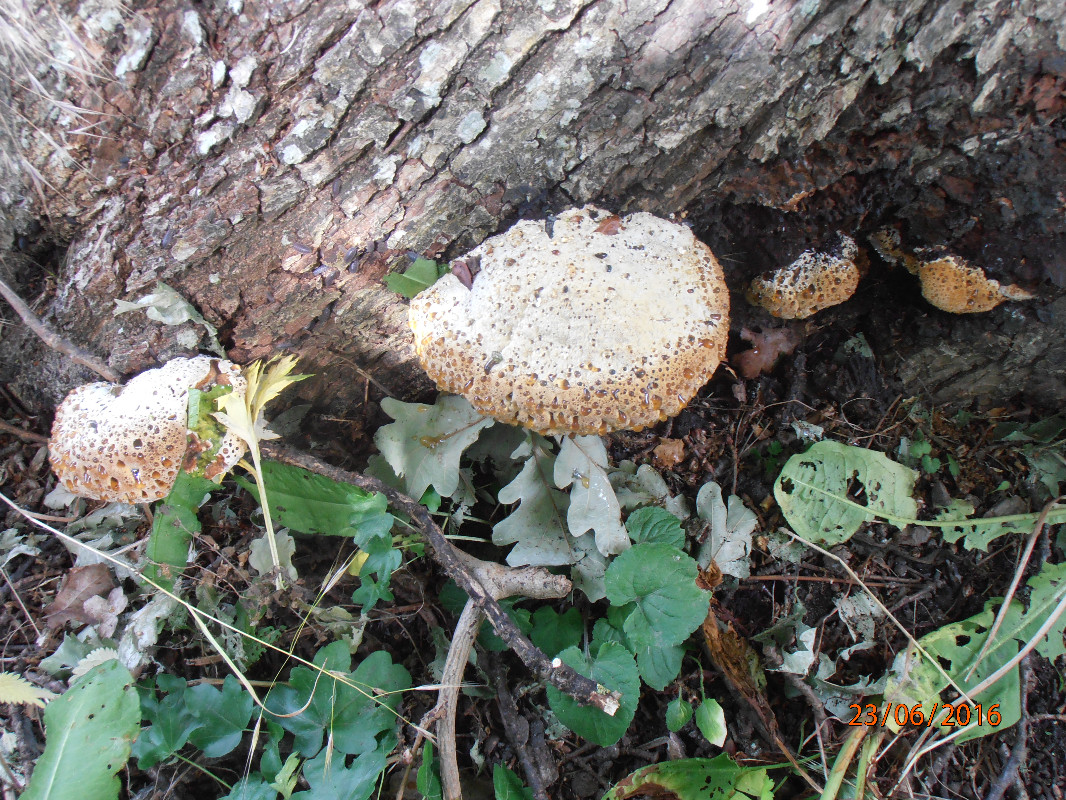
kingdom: Fungi
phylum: Basidiomycota
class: Agaricomycetes
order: Hymenochaetales
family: Hymenochaetaceae
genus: Pseudoinonotus
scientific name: Pseudoinonotus dryadeus
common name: ege-spejlporesvamp
